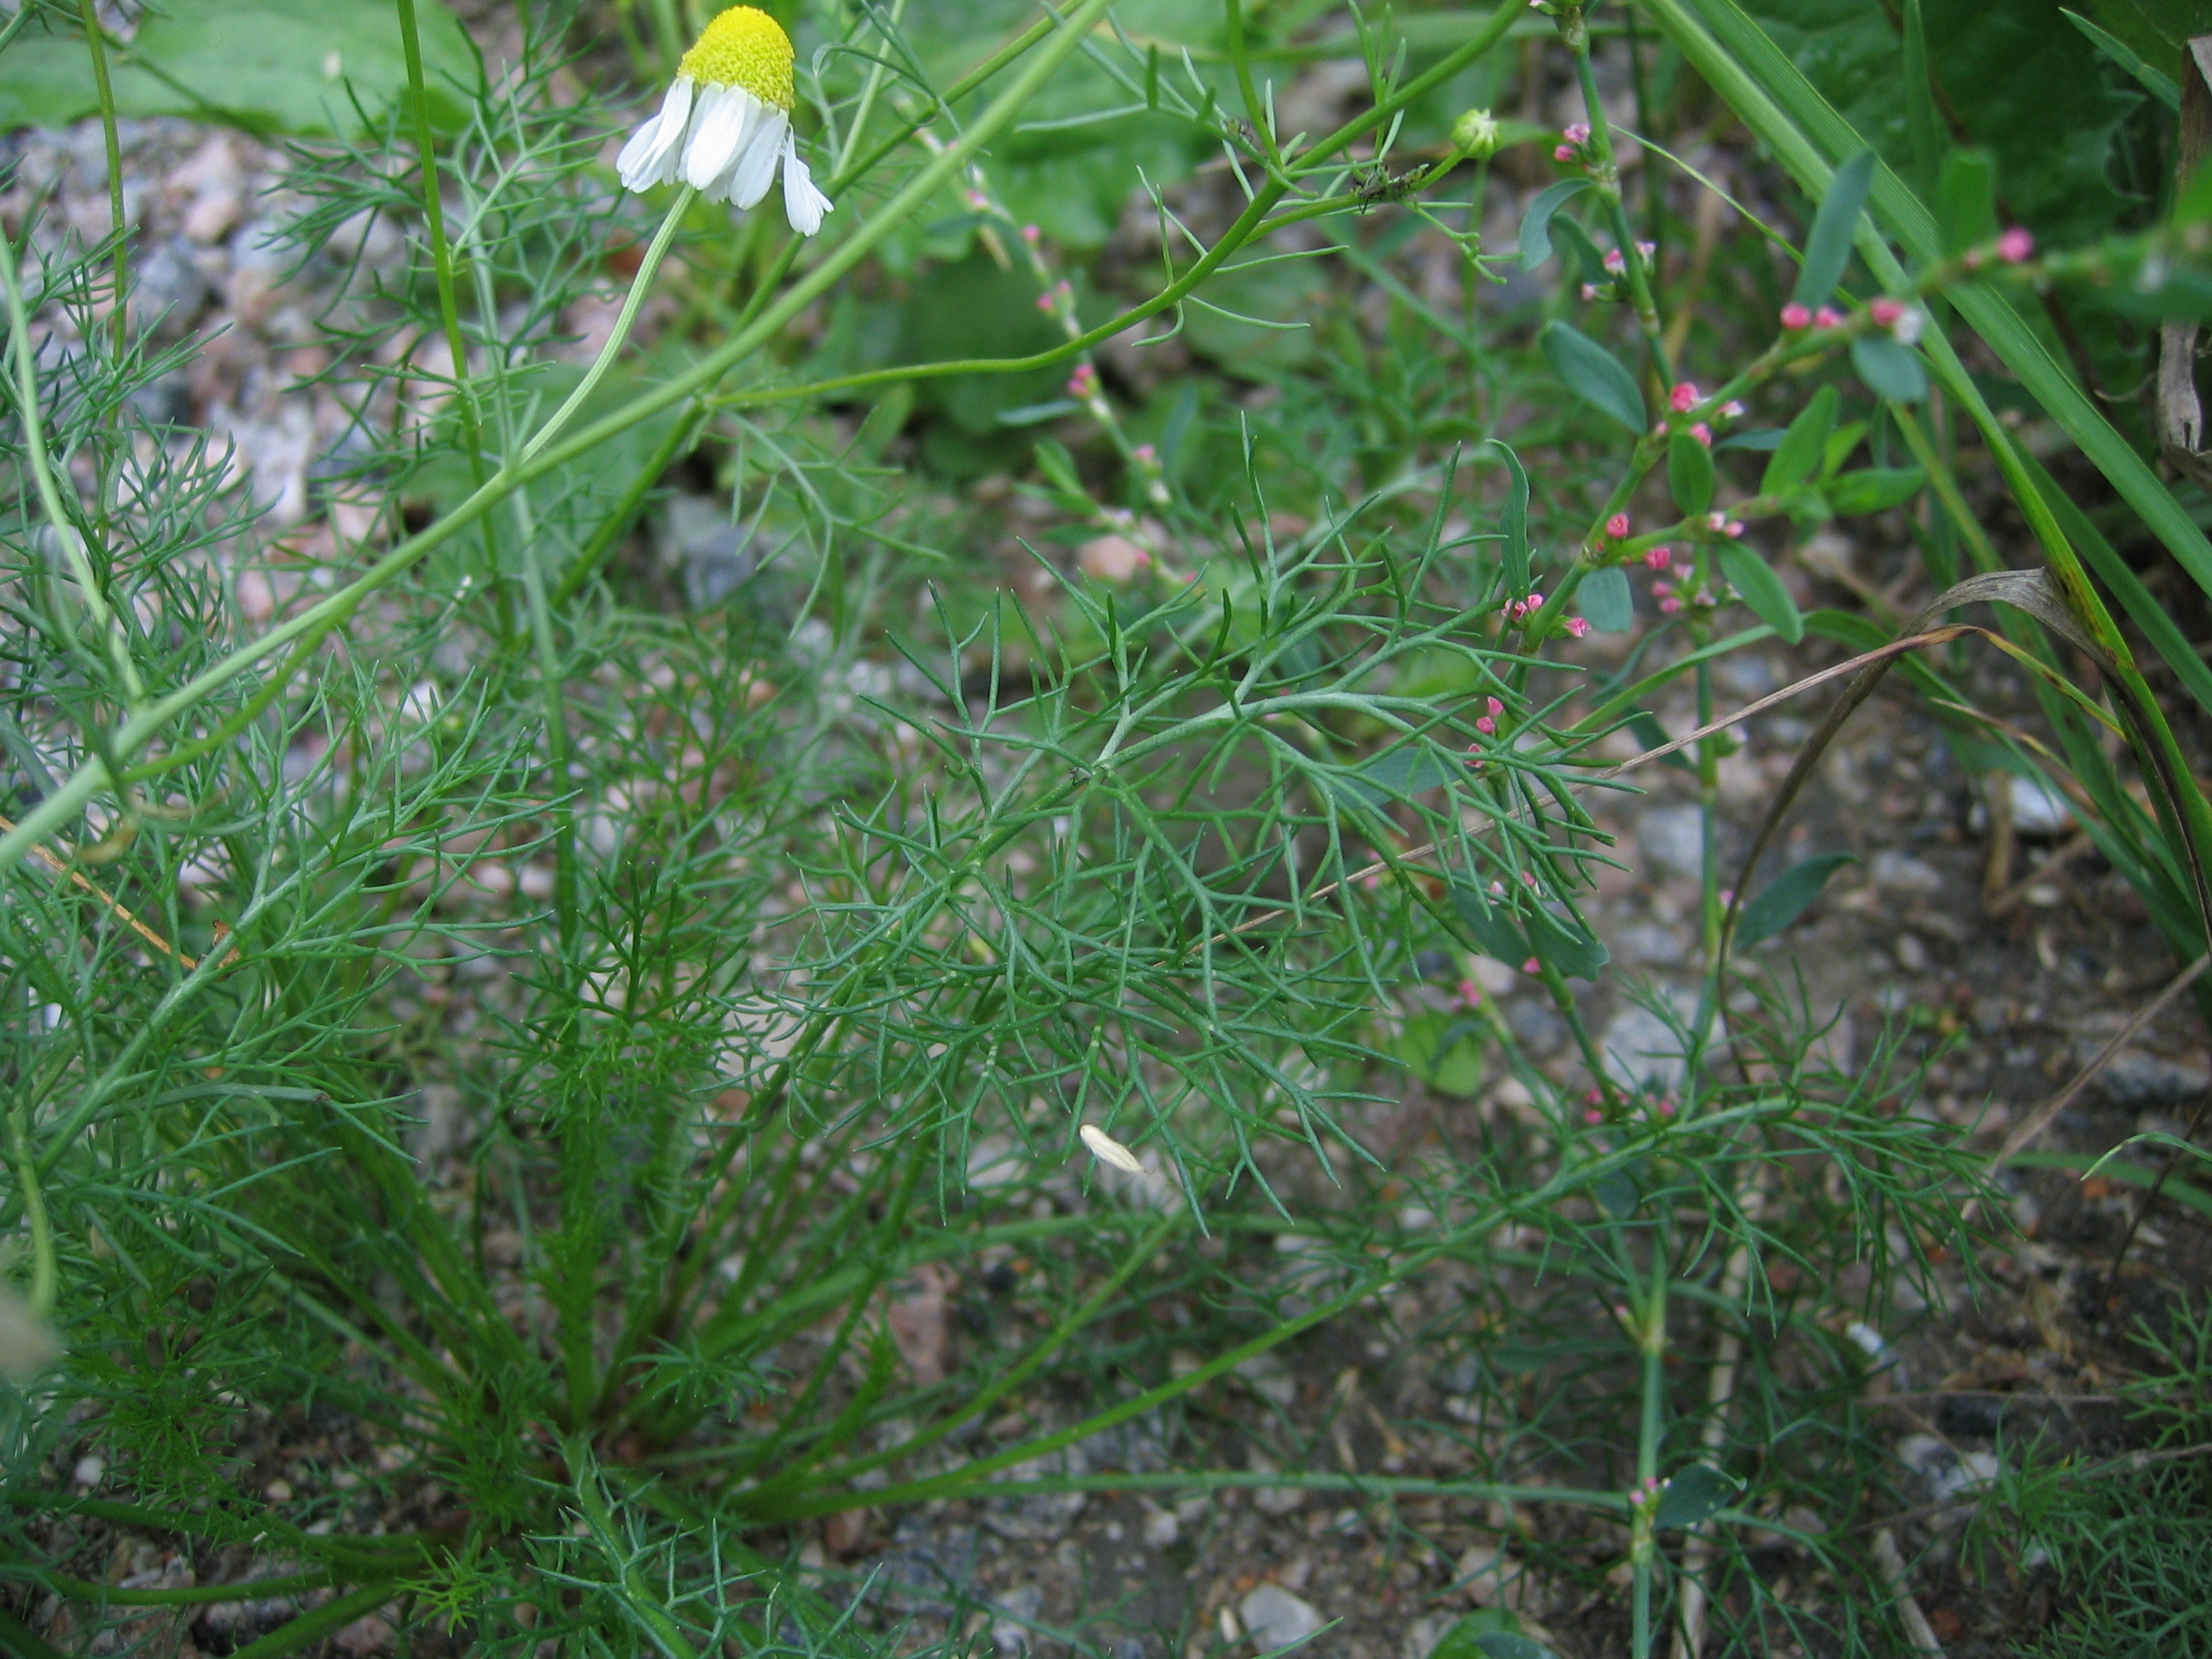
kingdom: Plantae
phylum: Tracheophyta
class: Magnoliopsida
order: Asterales
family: Asteraceae
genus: Matricaria
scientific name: Matricaria chamomilla
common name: Scented mayweed
